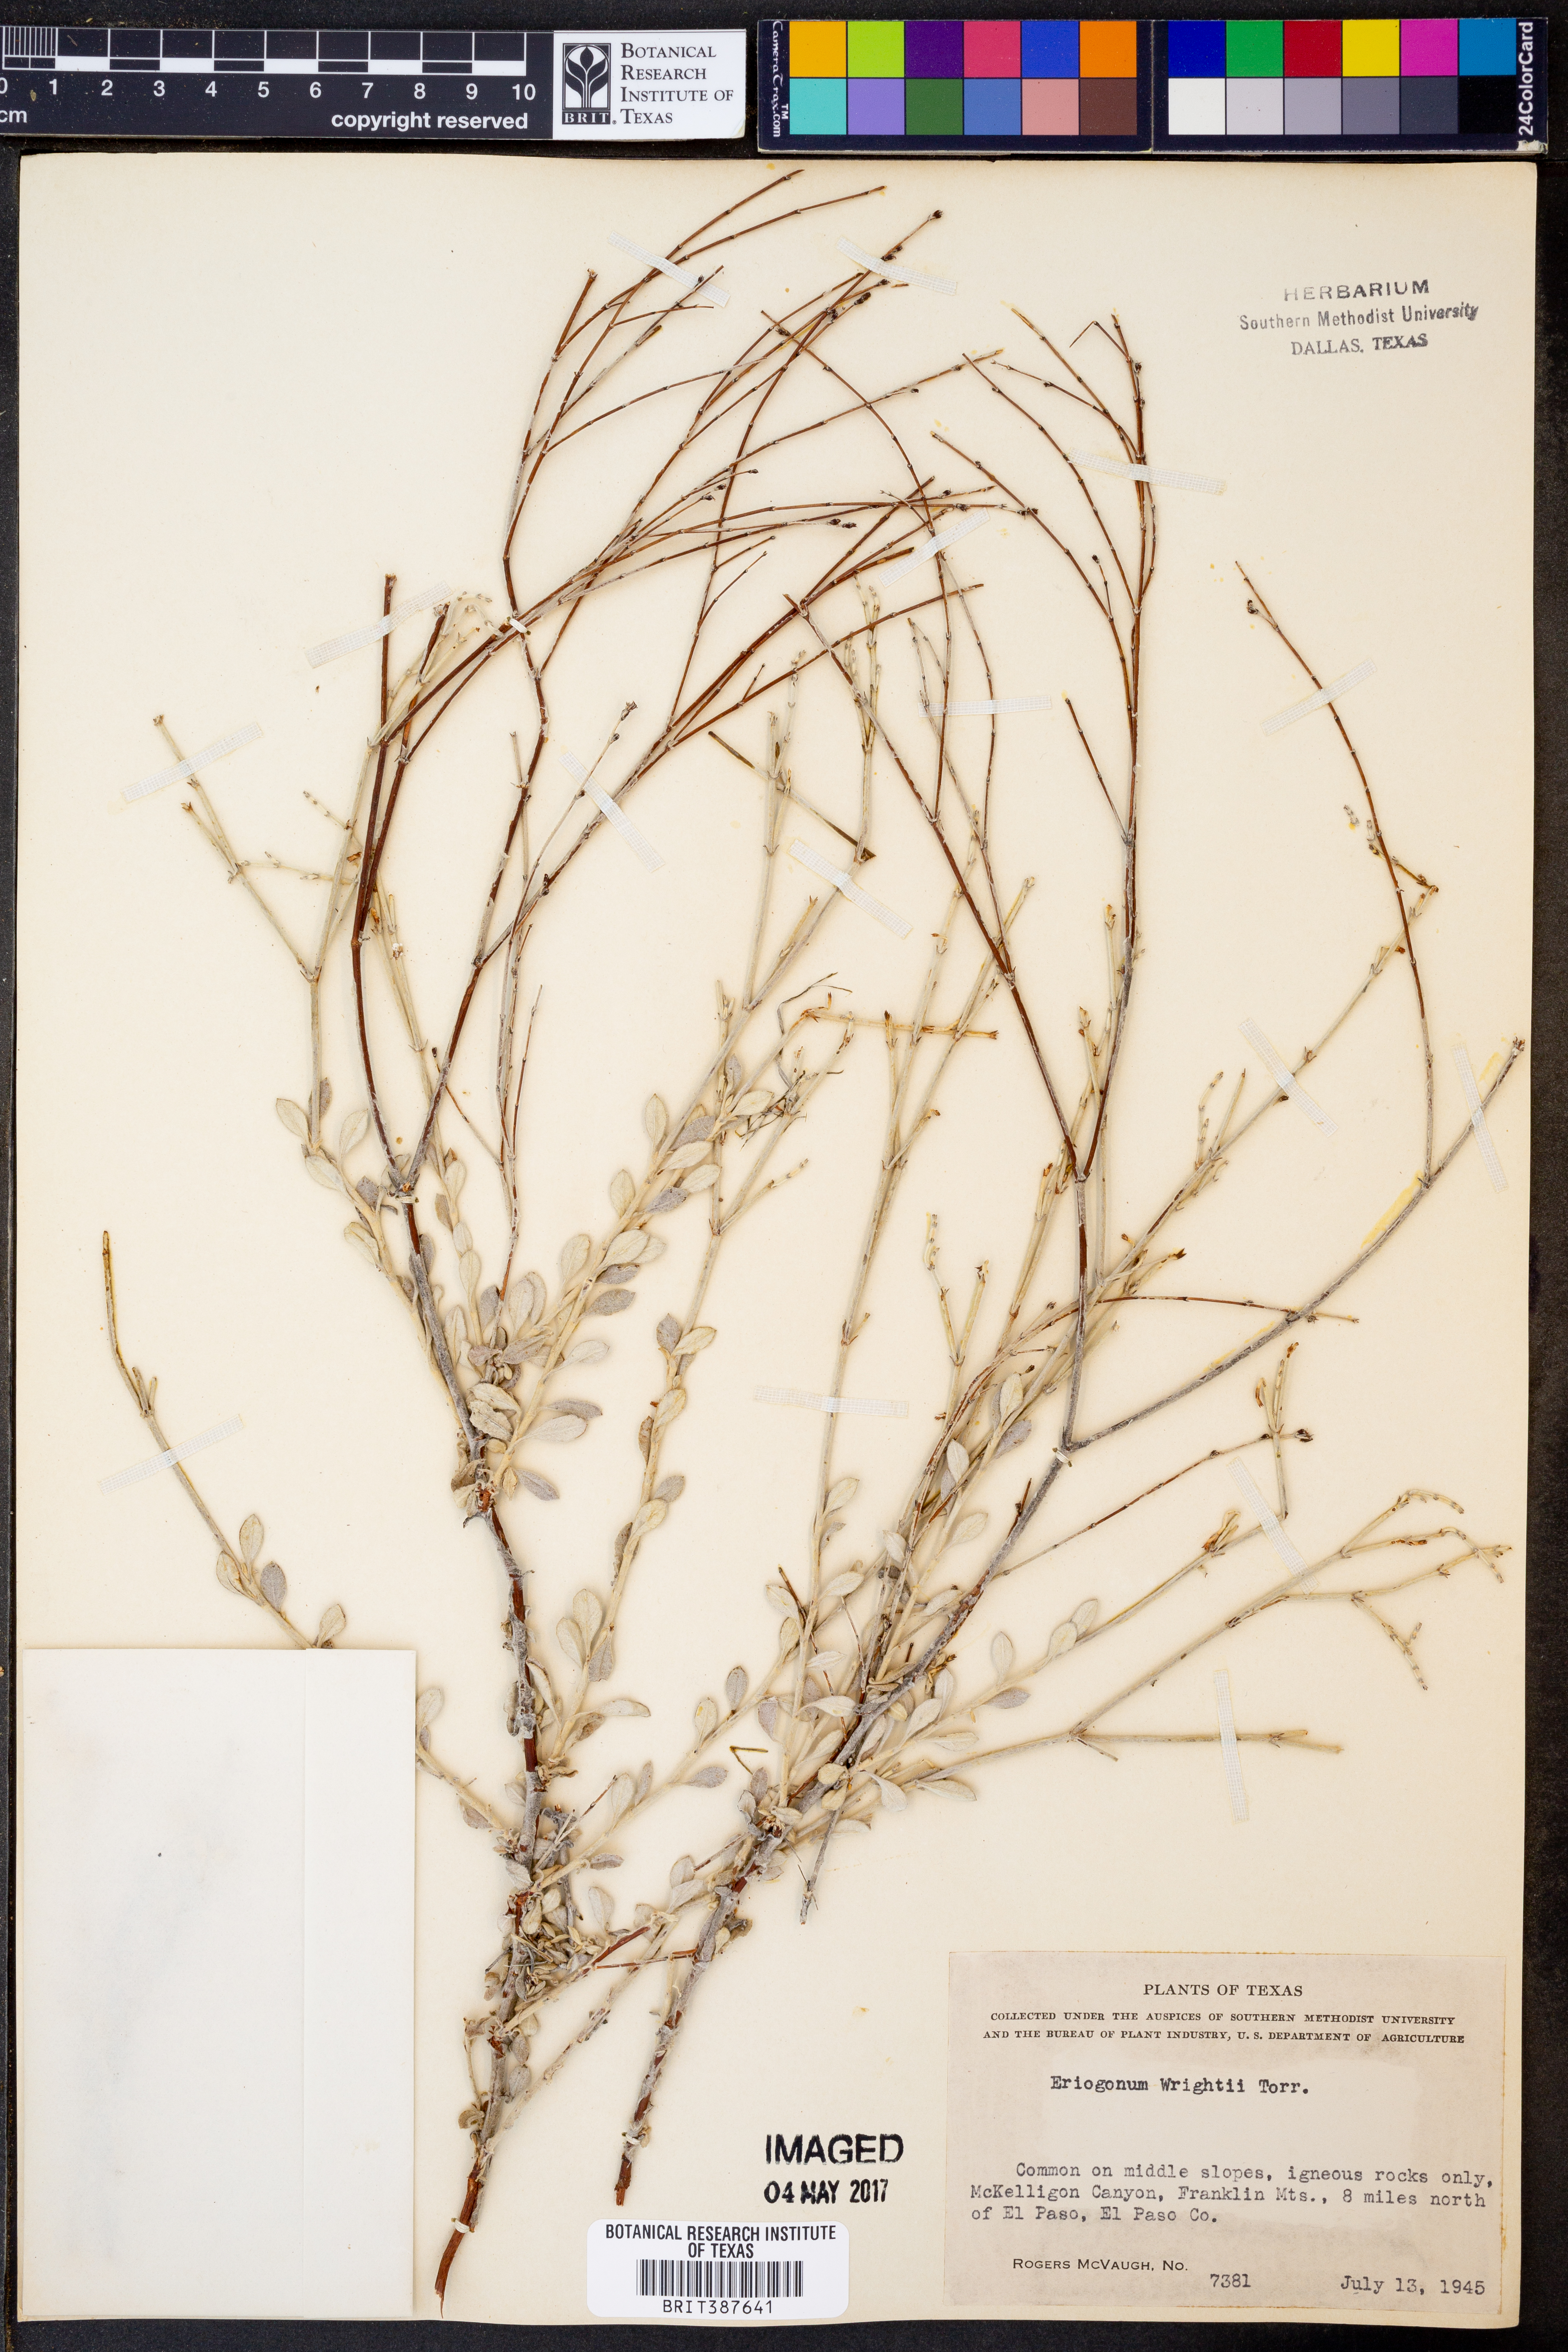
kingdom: Plantae
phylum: Tracheophyta
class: Magnoliopsida
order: Caryophyllales
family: Polygonaceae
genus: Eriogonum
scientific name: Eriogonum wrightii
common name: Bastard-sage
